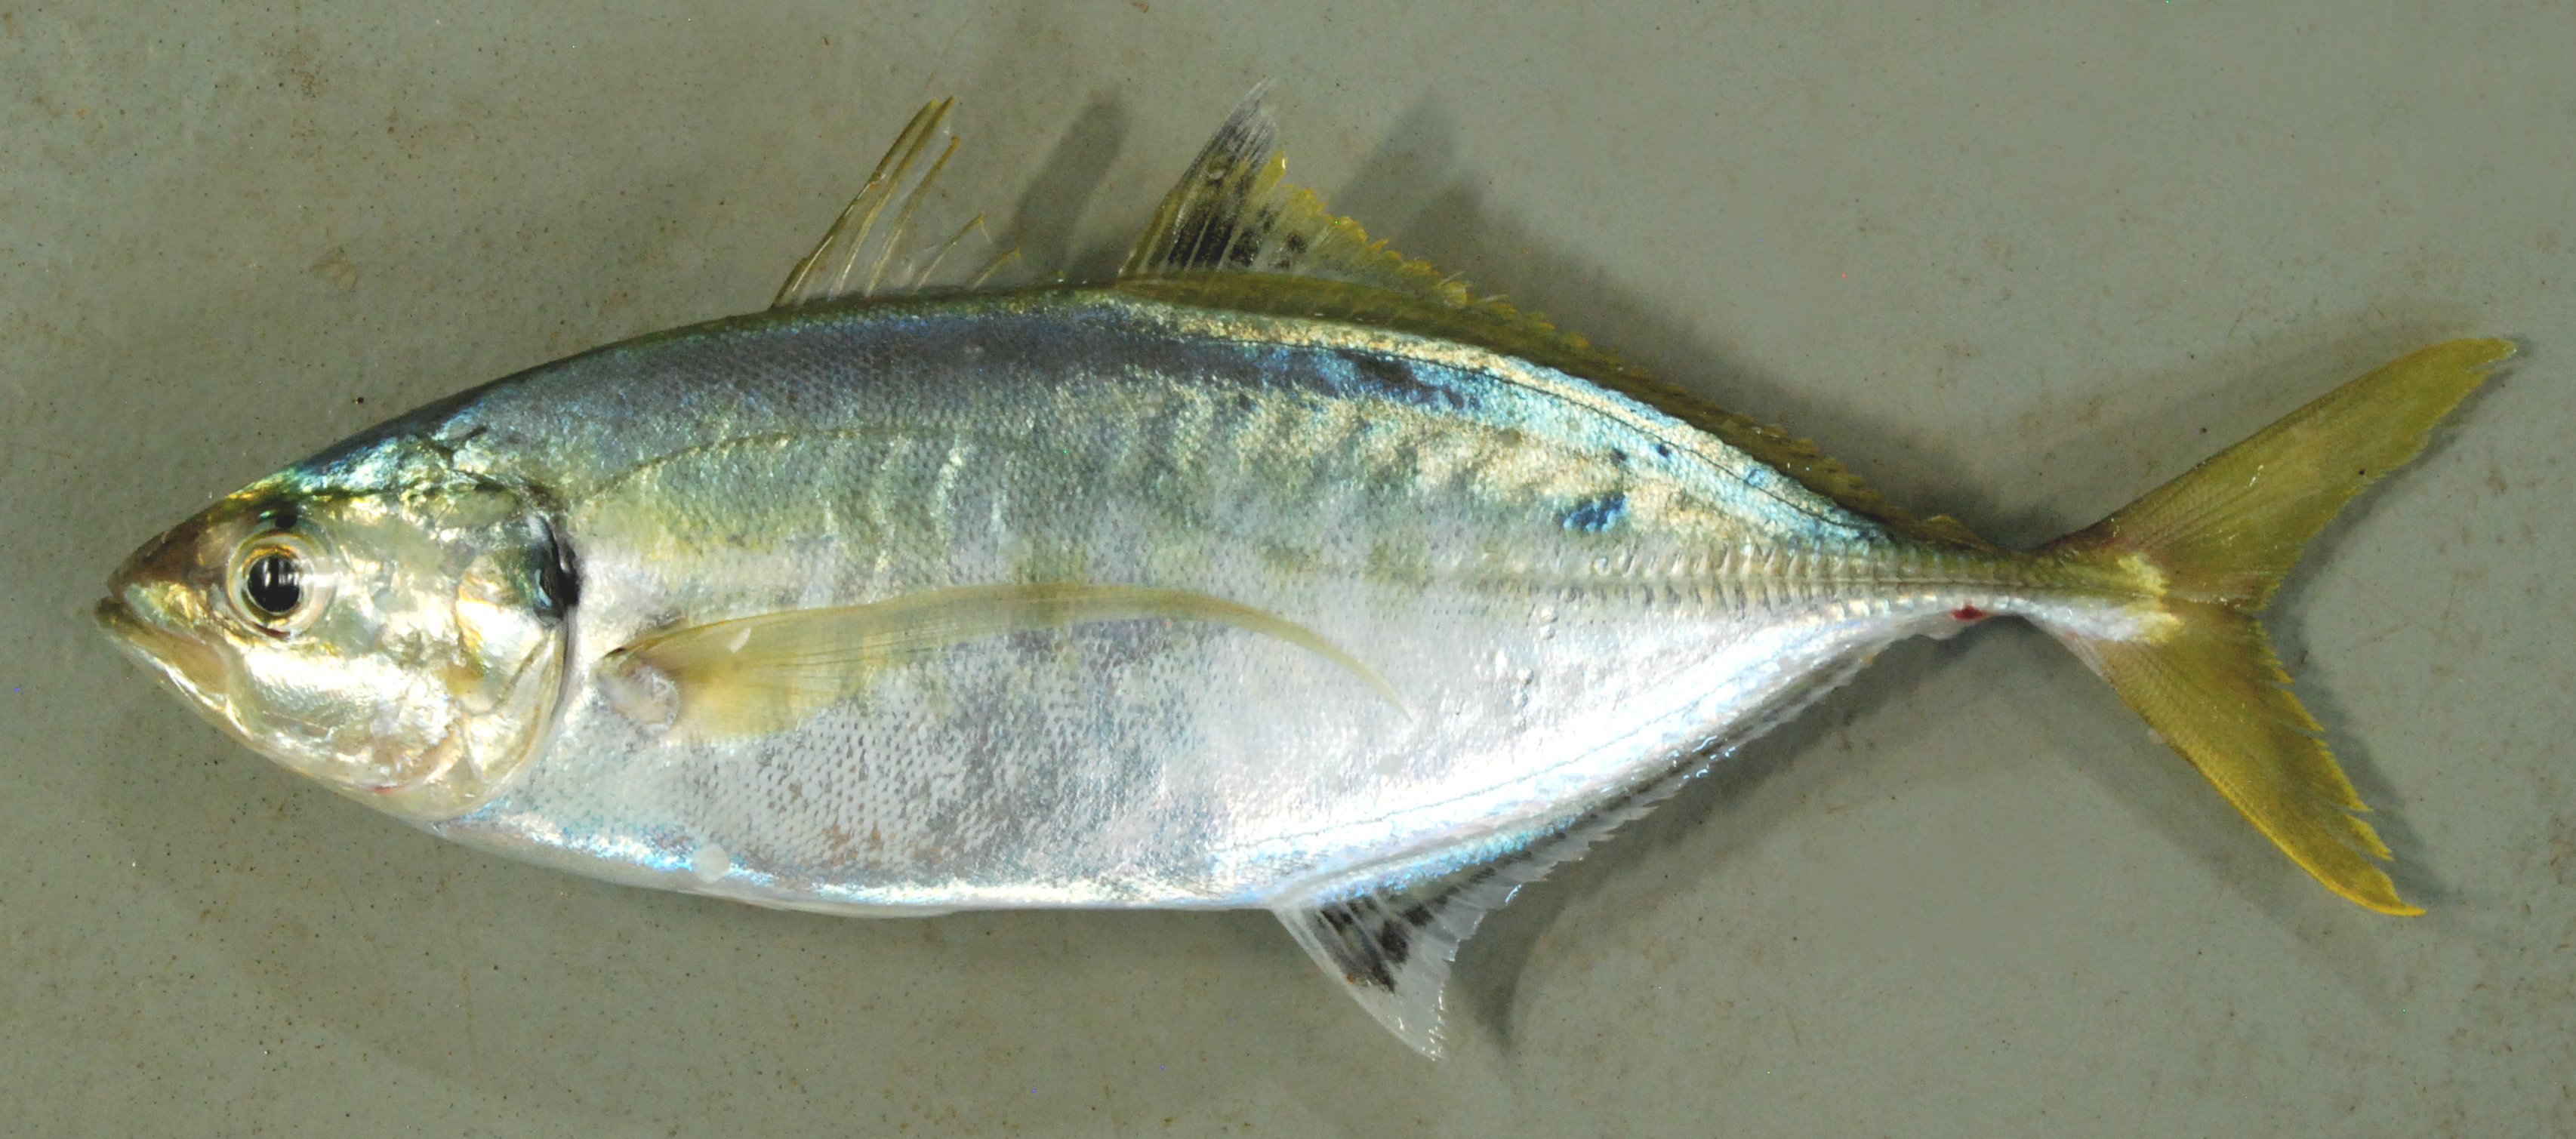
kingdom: Animalia
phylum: Chordata
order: Perciformes
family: Carangidae
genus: Atule
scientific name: Atule mate
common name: Yellowtail scad
